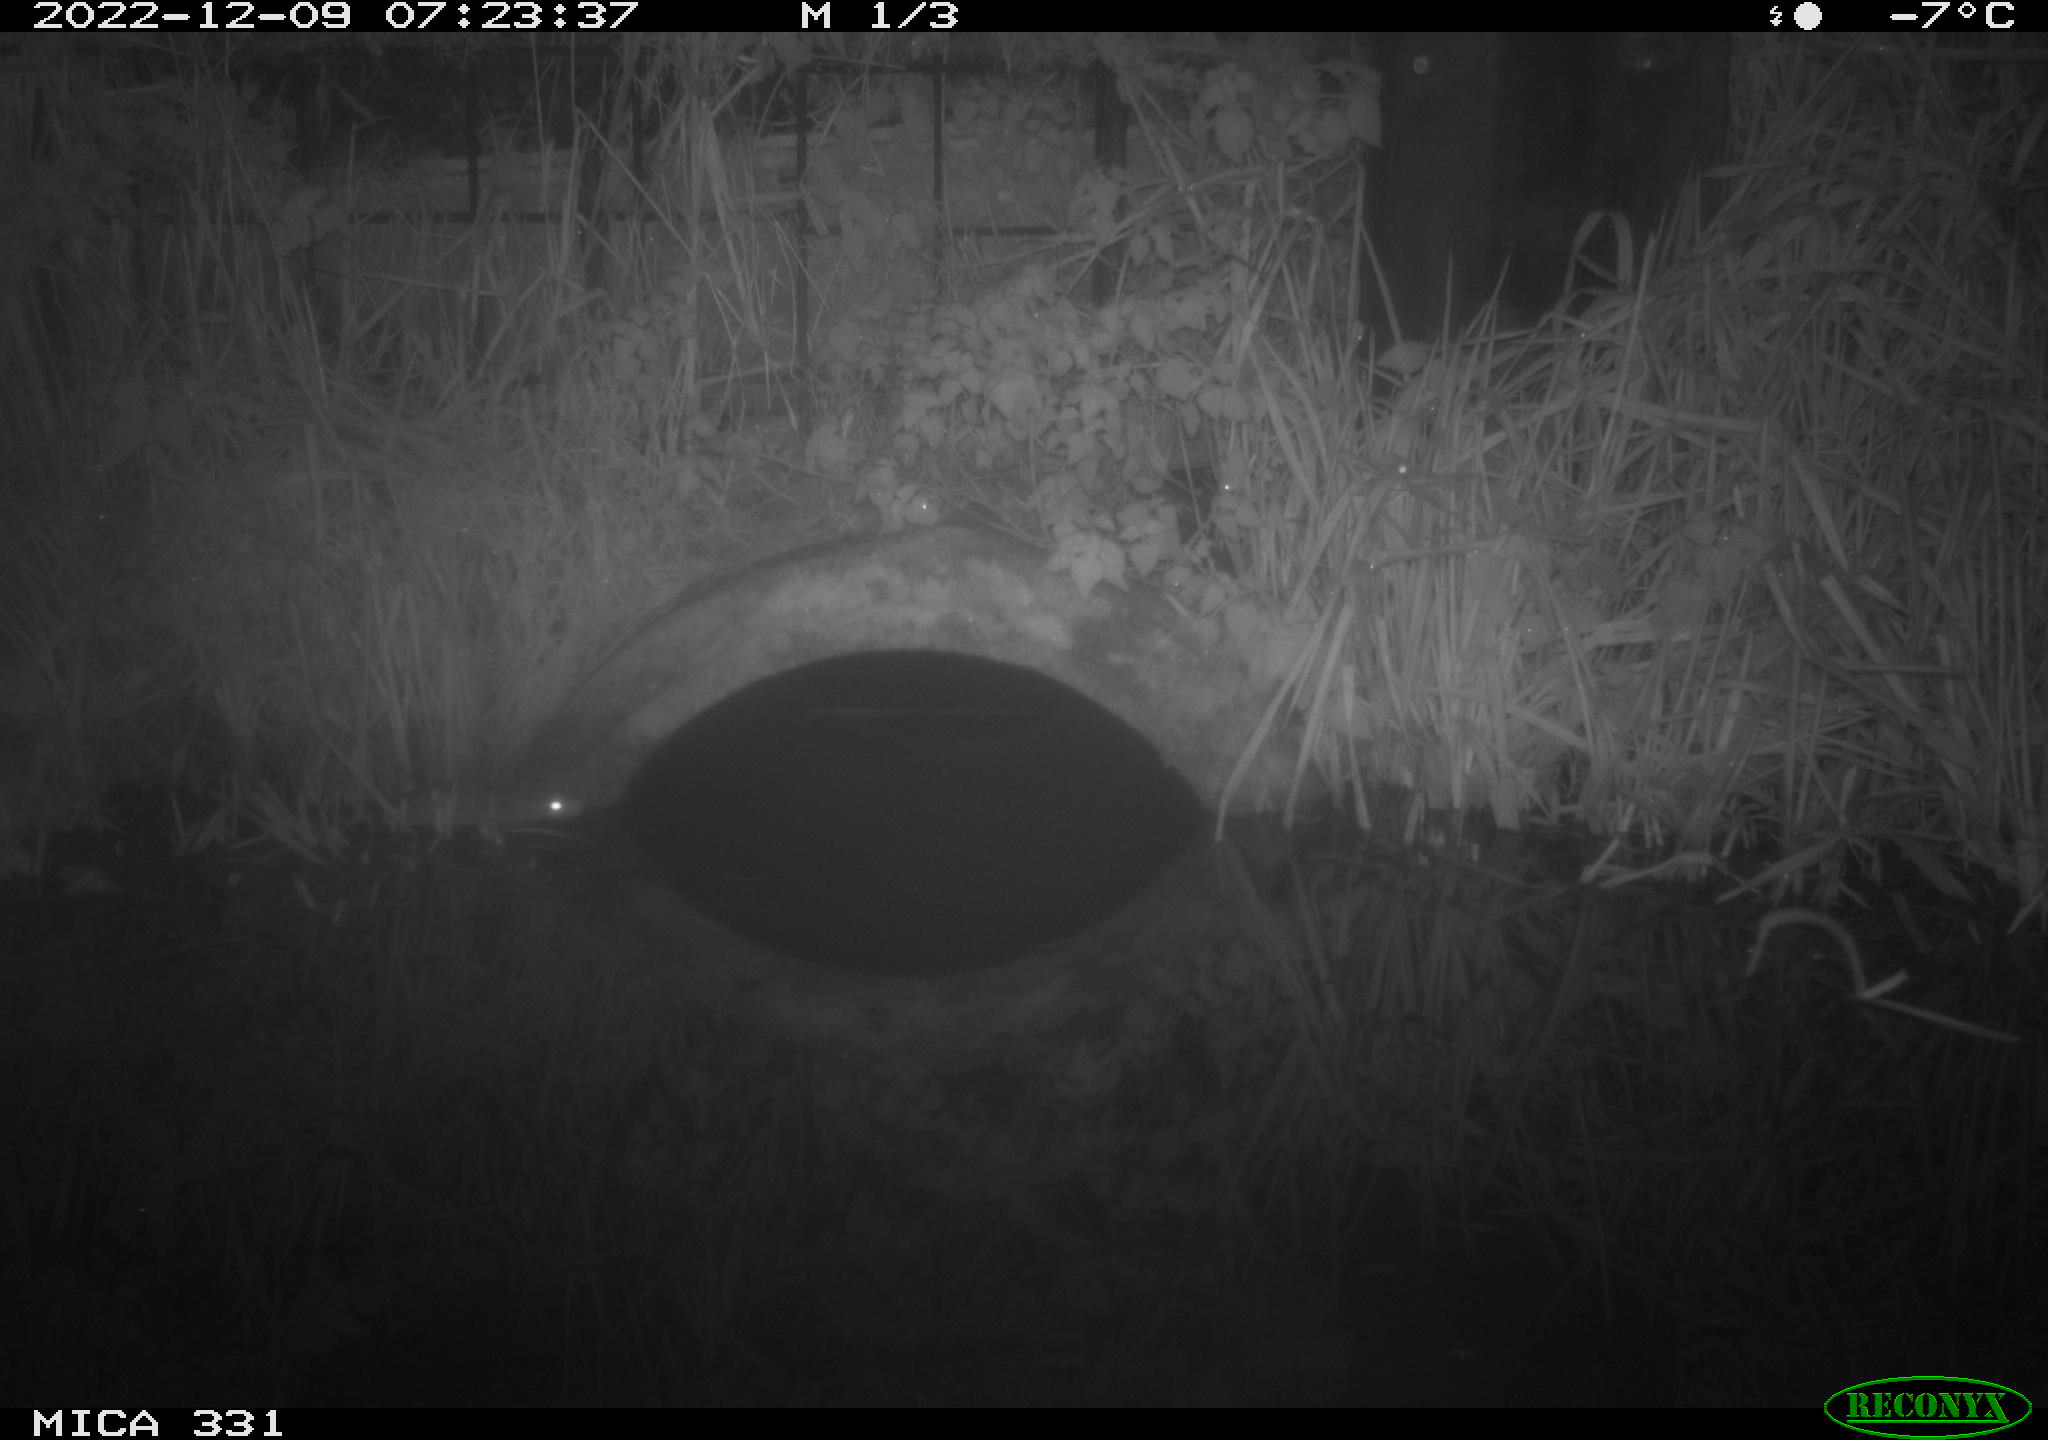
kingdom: Animalia
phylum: Chordata
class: Mammalia
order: Rodentia
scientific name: Rodentia
